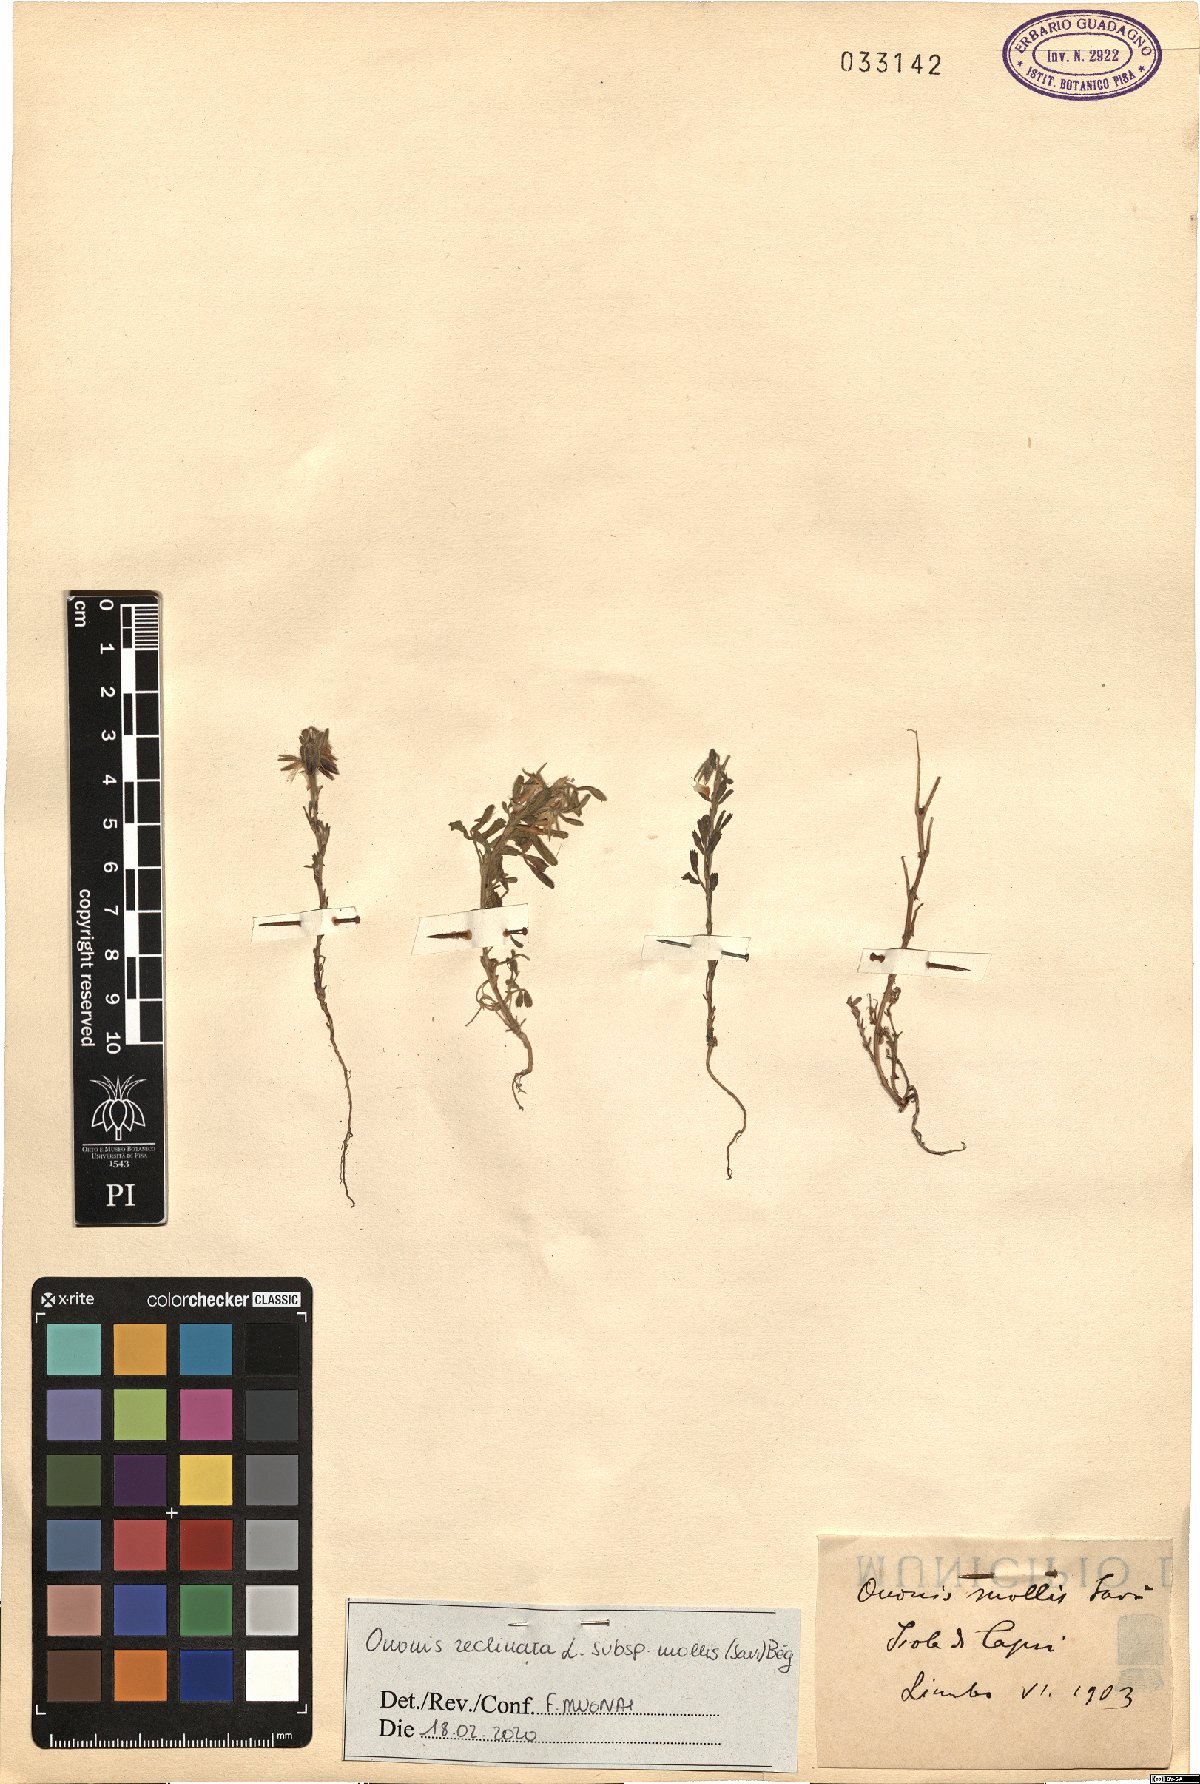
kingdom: Plantae
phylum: Tracheophyta
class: Magnoliopsida
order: Fabales
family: Fabaceae
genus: Ononis
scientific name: Ononis reclinata
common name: Small restharrow
